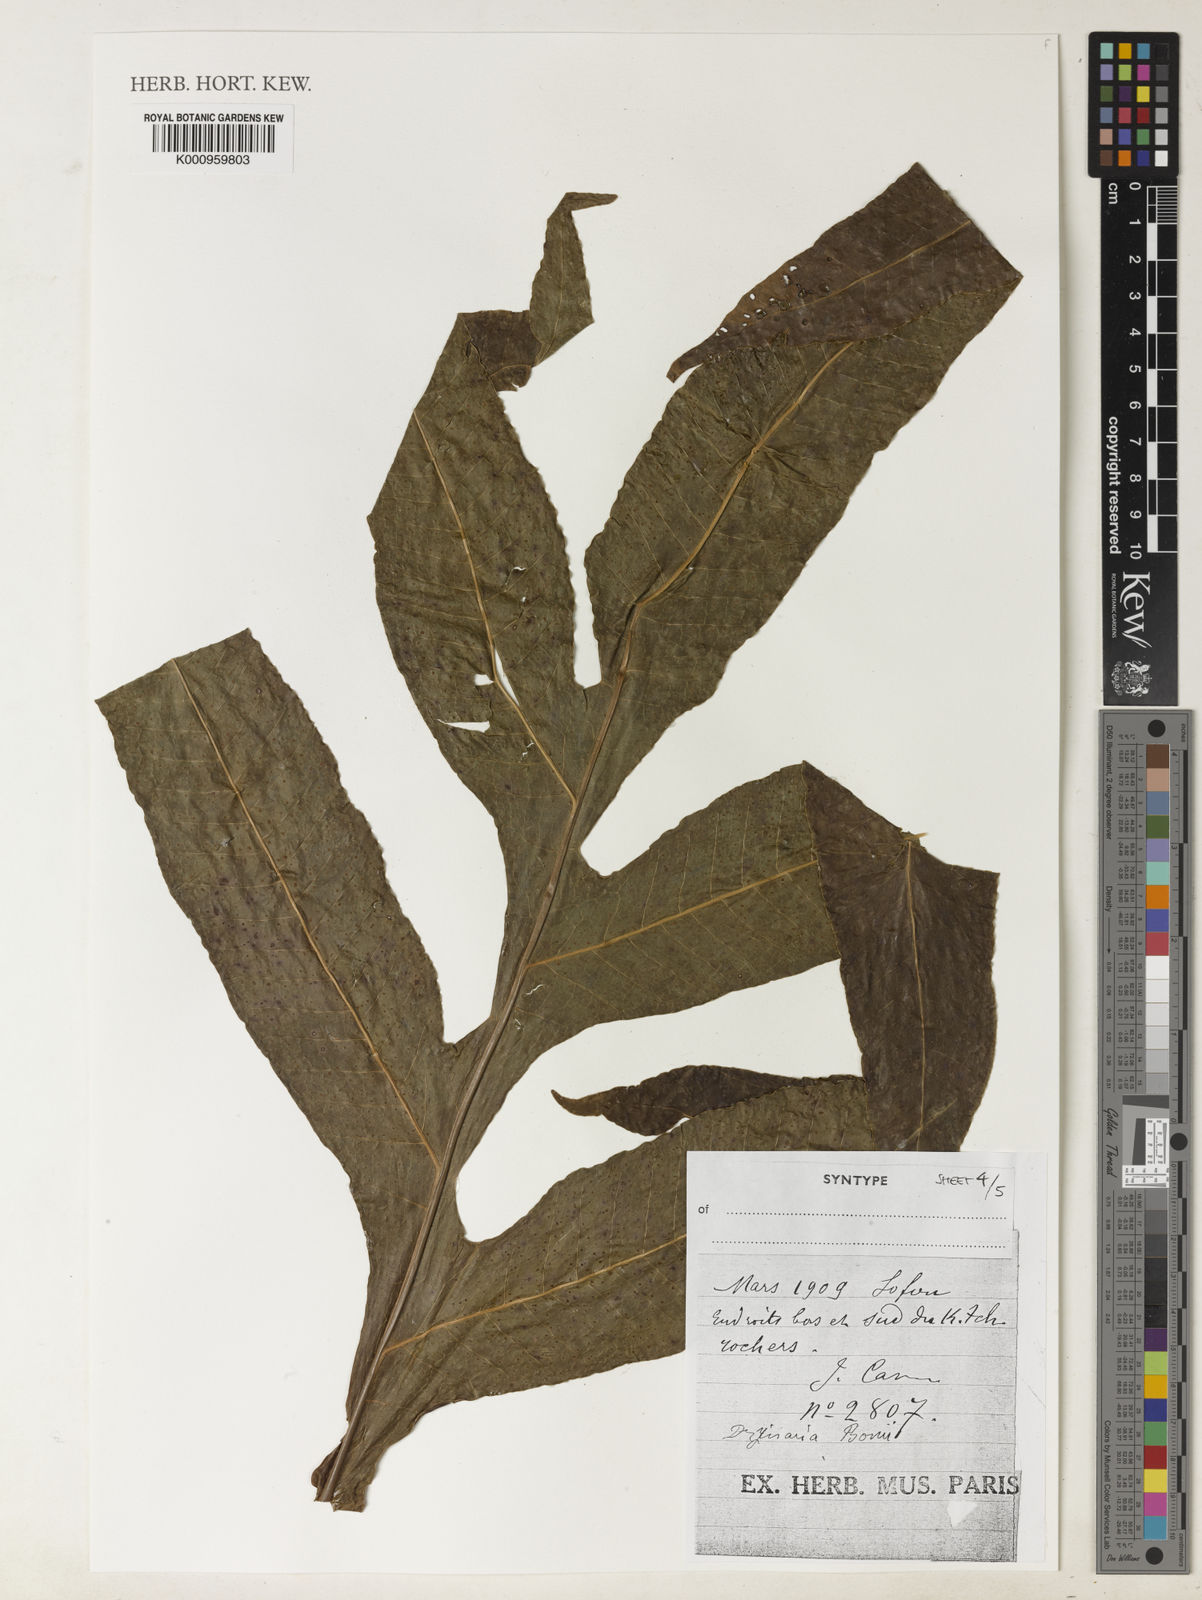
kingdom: Plantae
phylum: Tracheophyta
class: Polypodiopsida
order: Polypodiales
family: Polypodiaceae
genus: Drynaria
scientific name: Drynaria bonii
